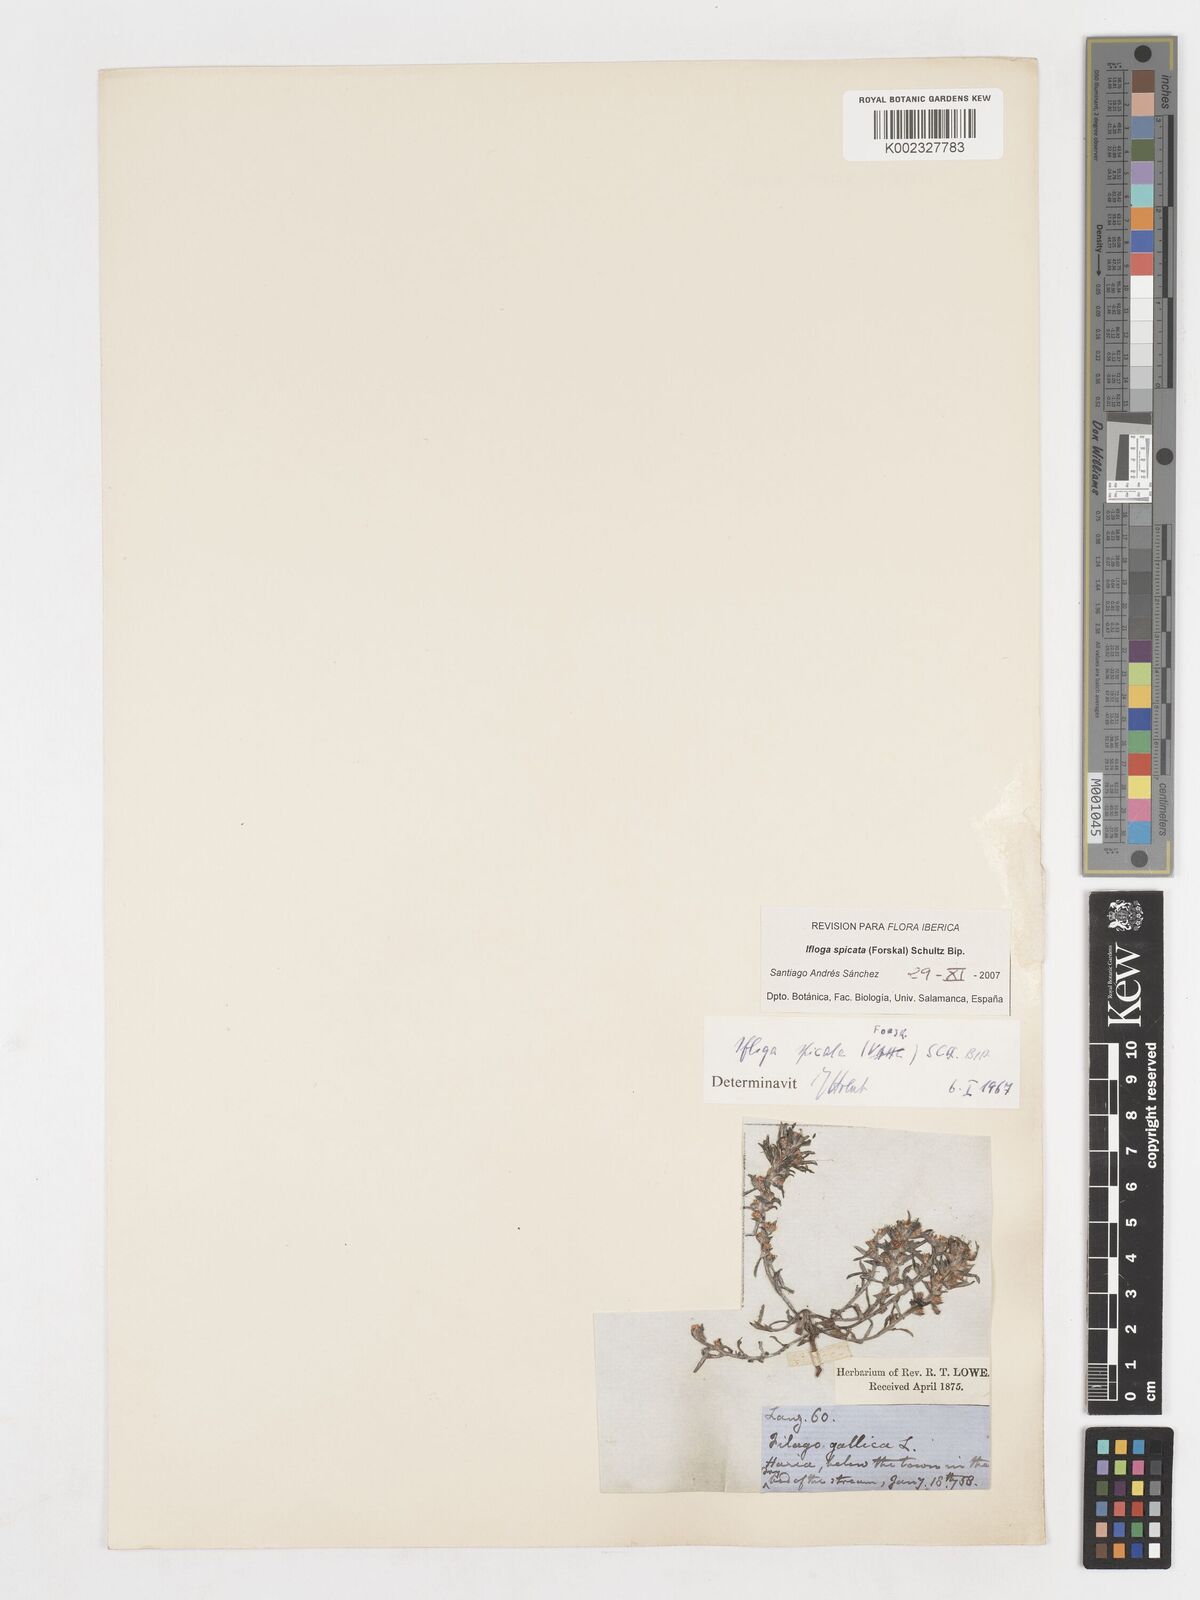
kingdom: Plantae
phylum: Tracheophyta
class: Magnoliopsida
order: Asterales
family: Asteraceae
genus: Ifloga
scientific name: Ifloga spicata
